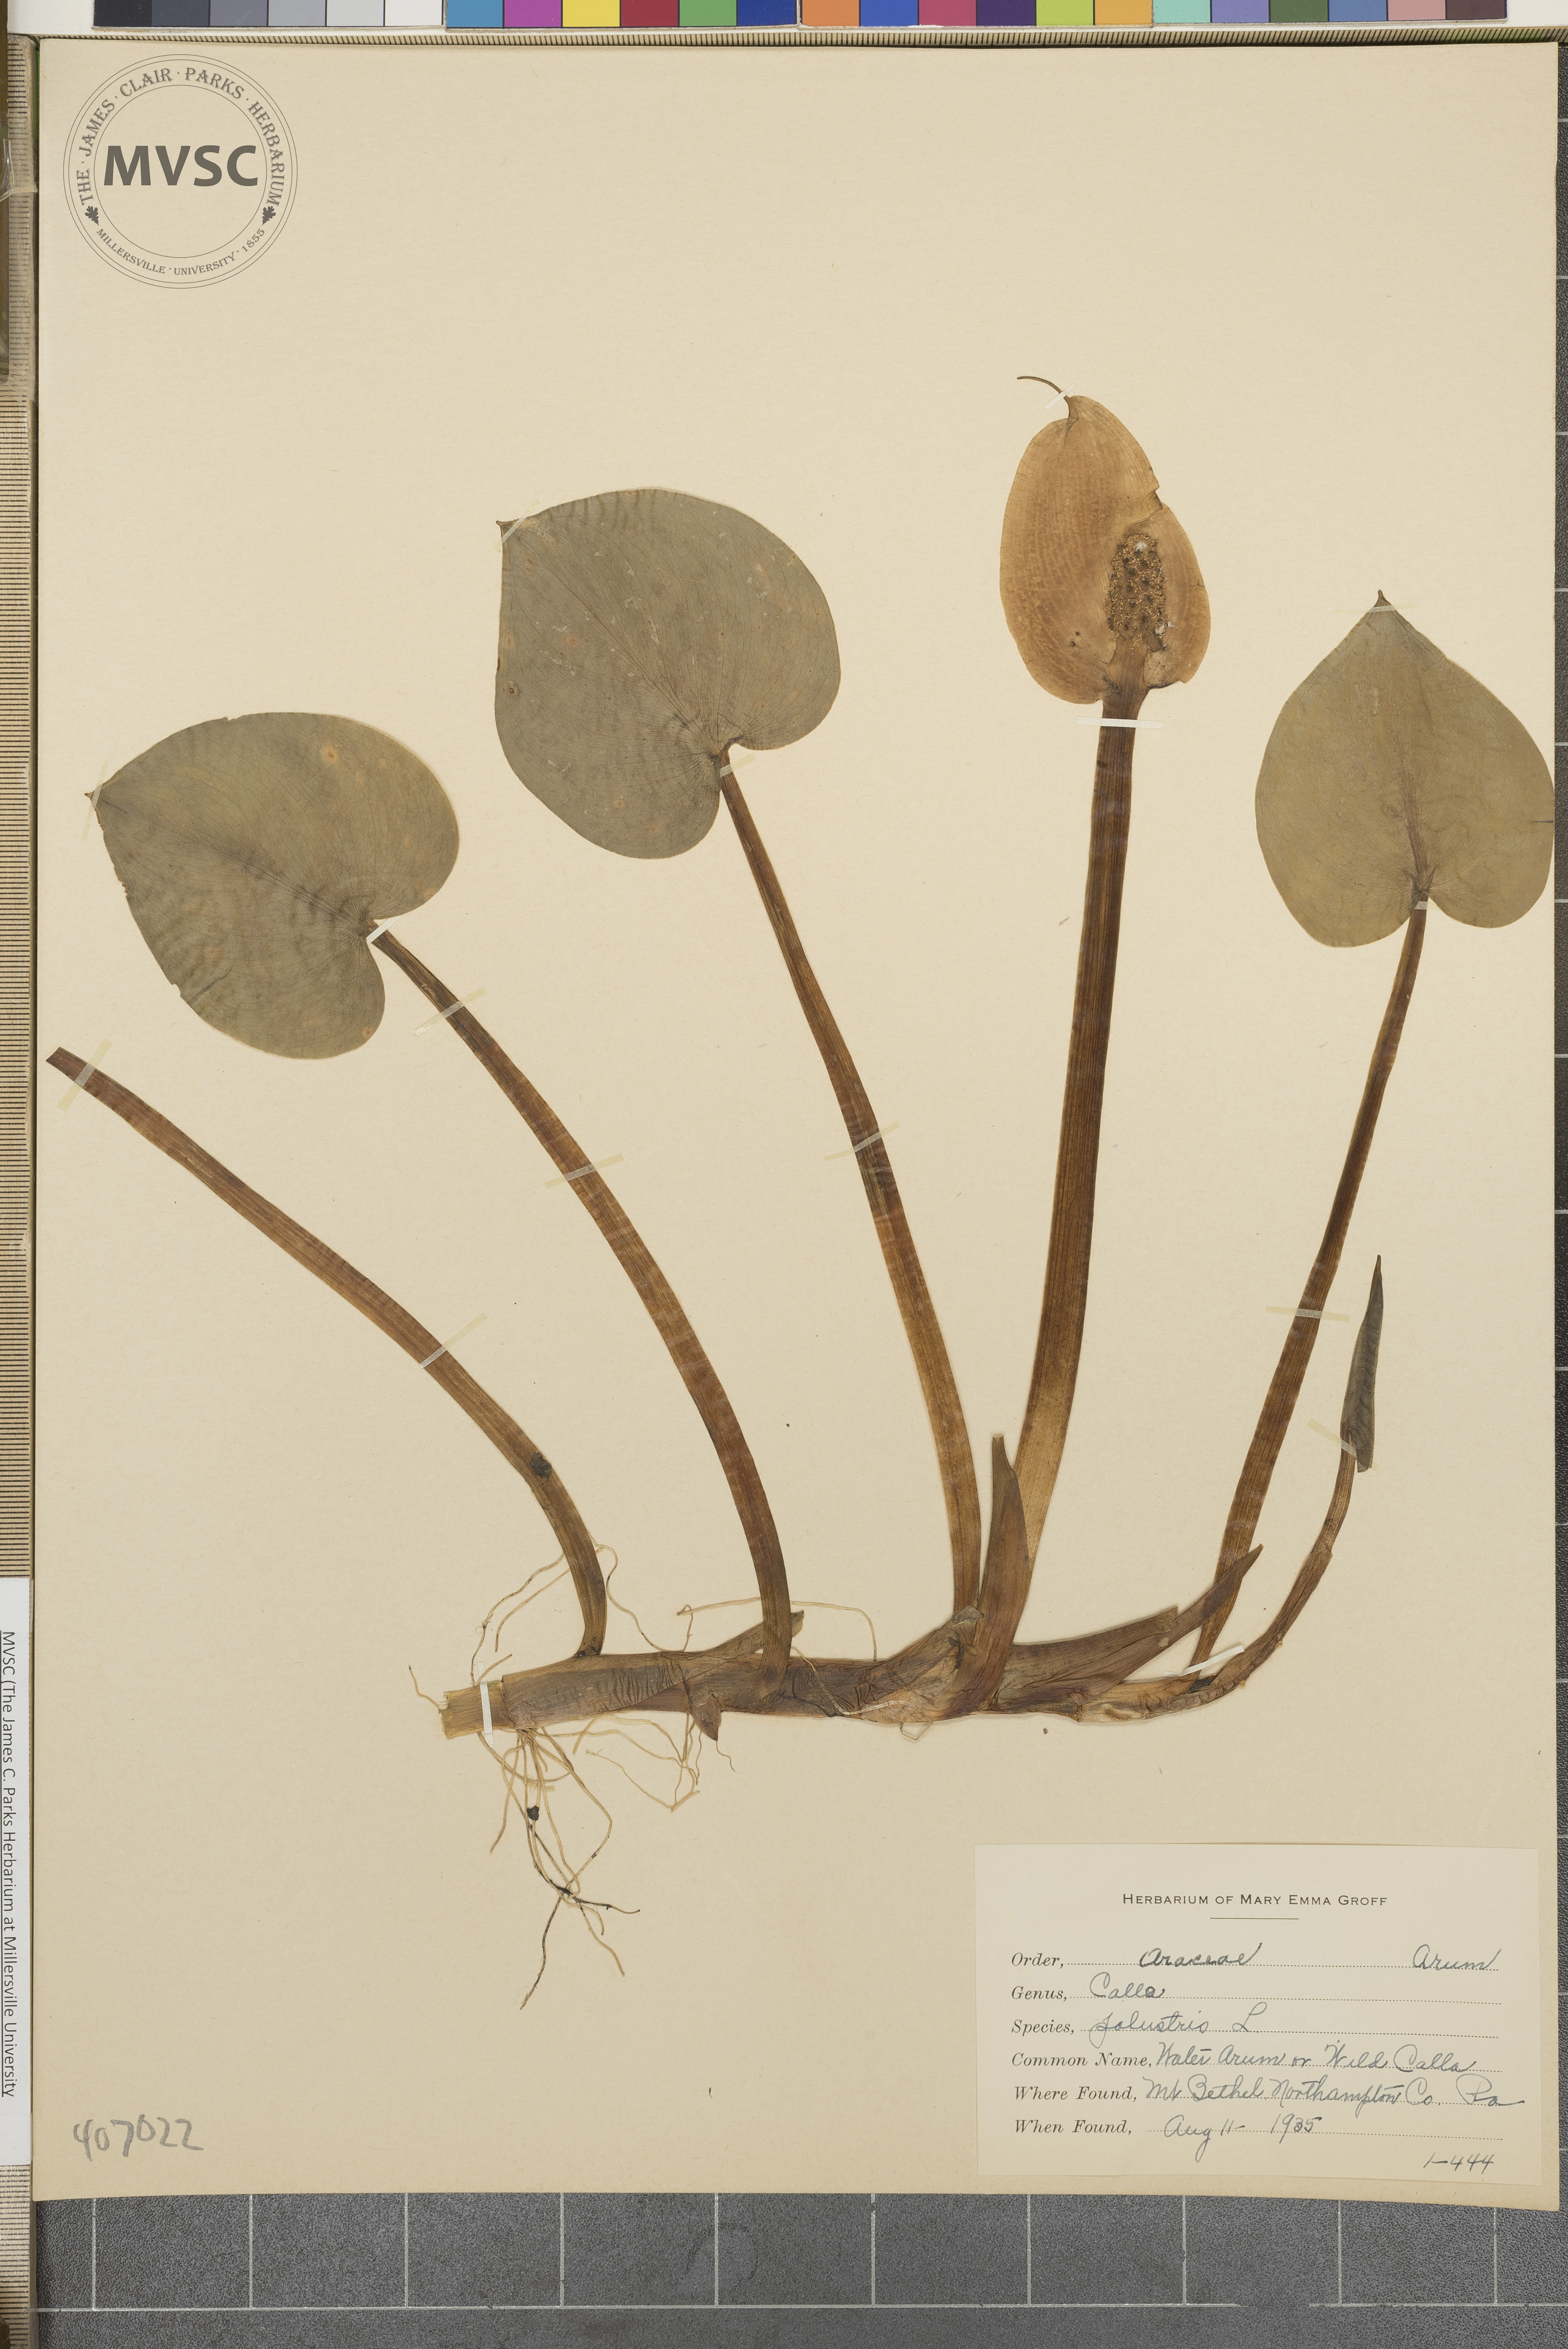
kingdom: Plantae
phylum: Tracheophyta
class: Liliopsida
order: Alismatales
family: Araceae
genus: Calla
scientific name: Calla palustris
